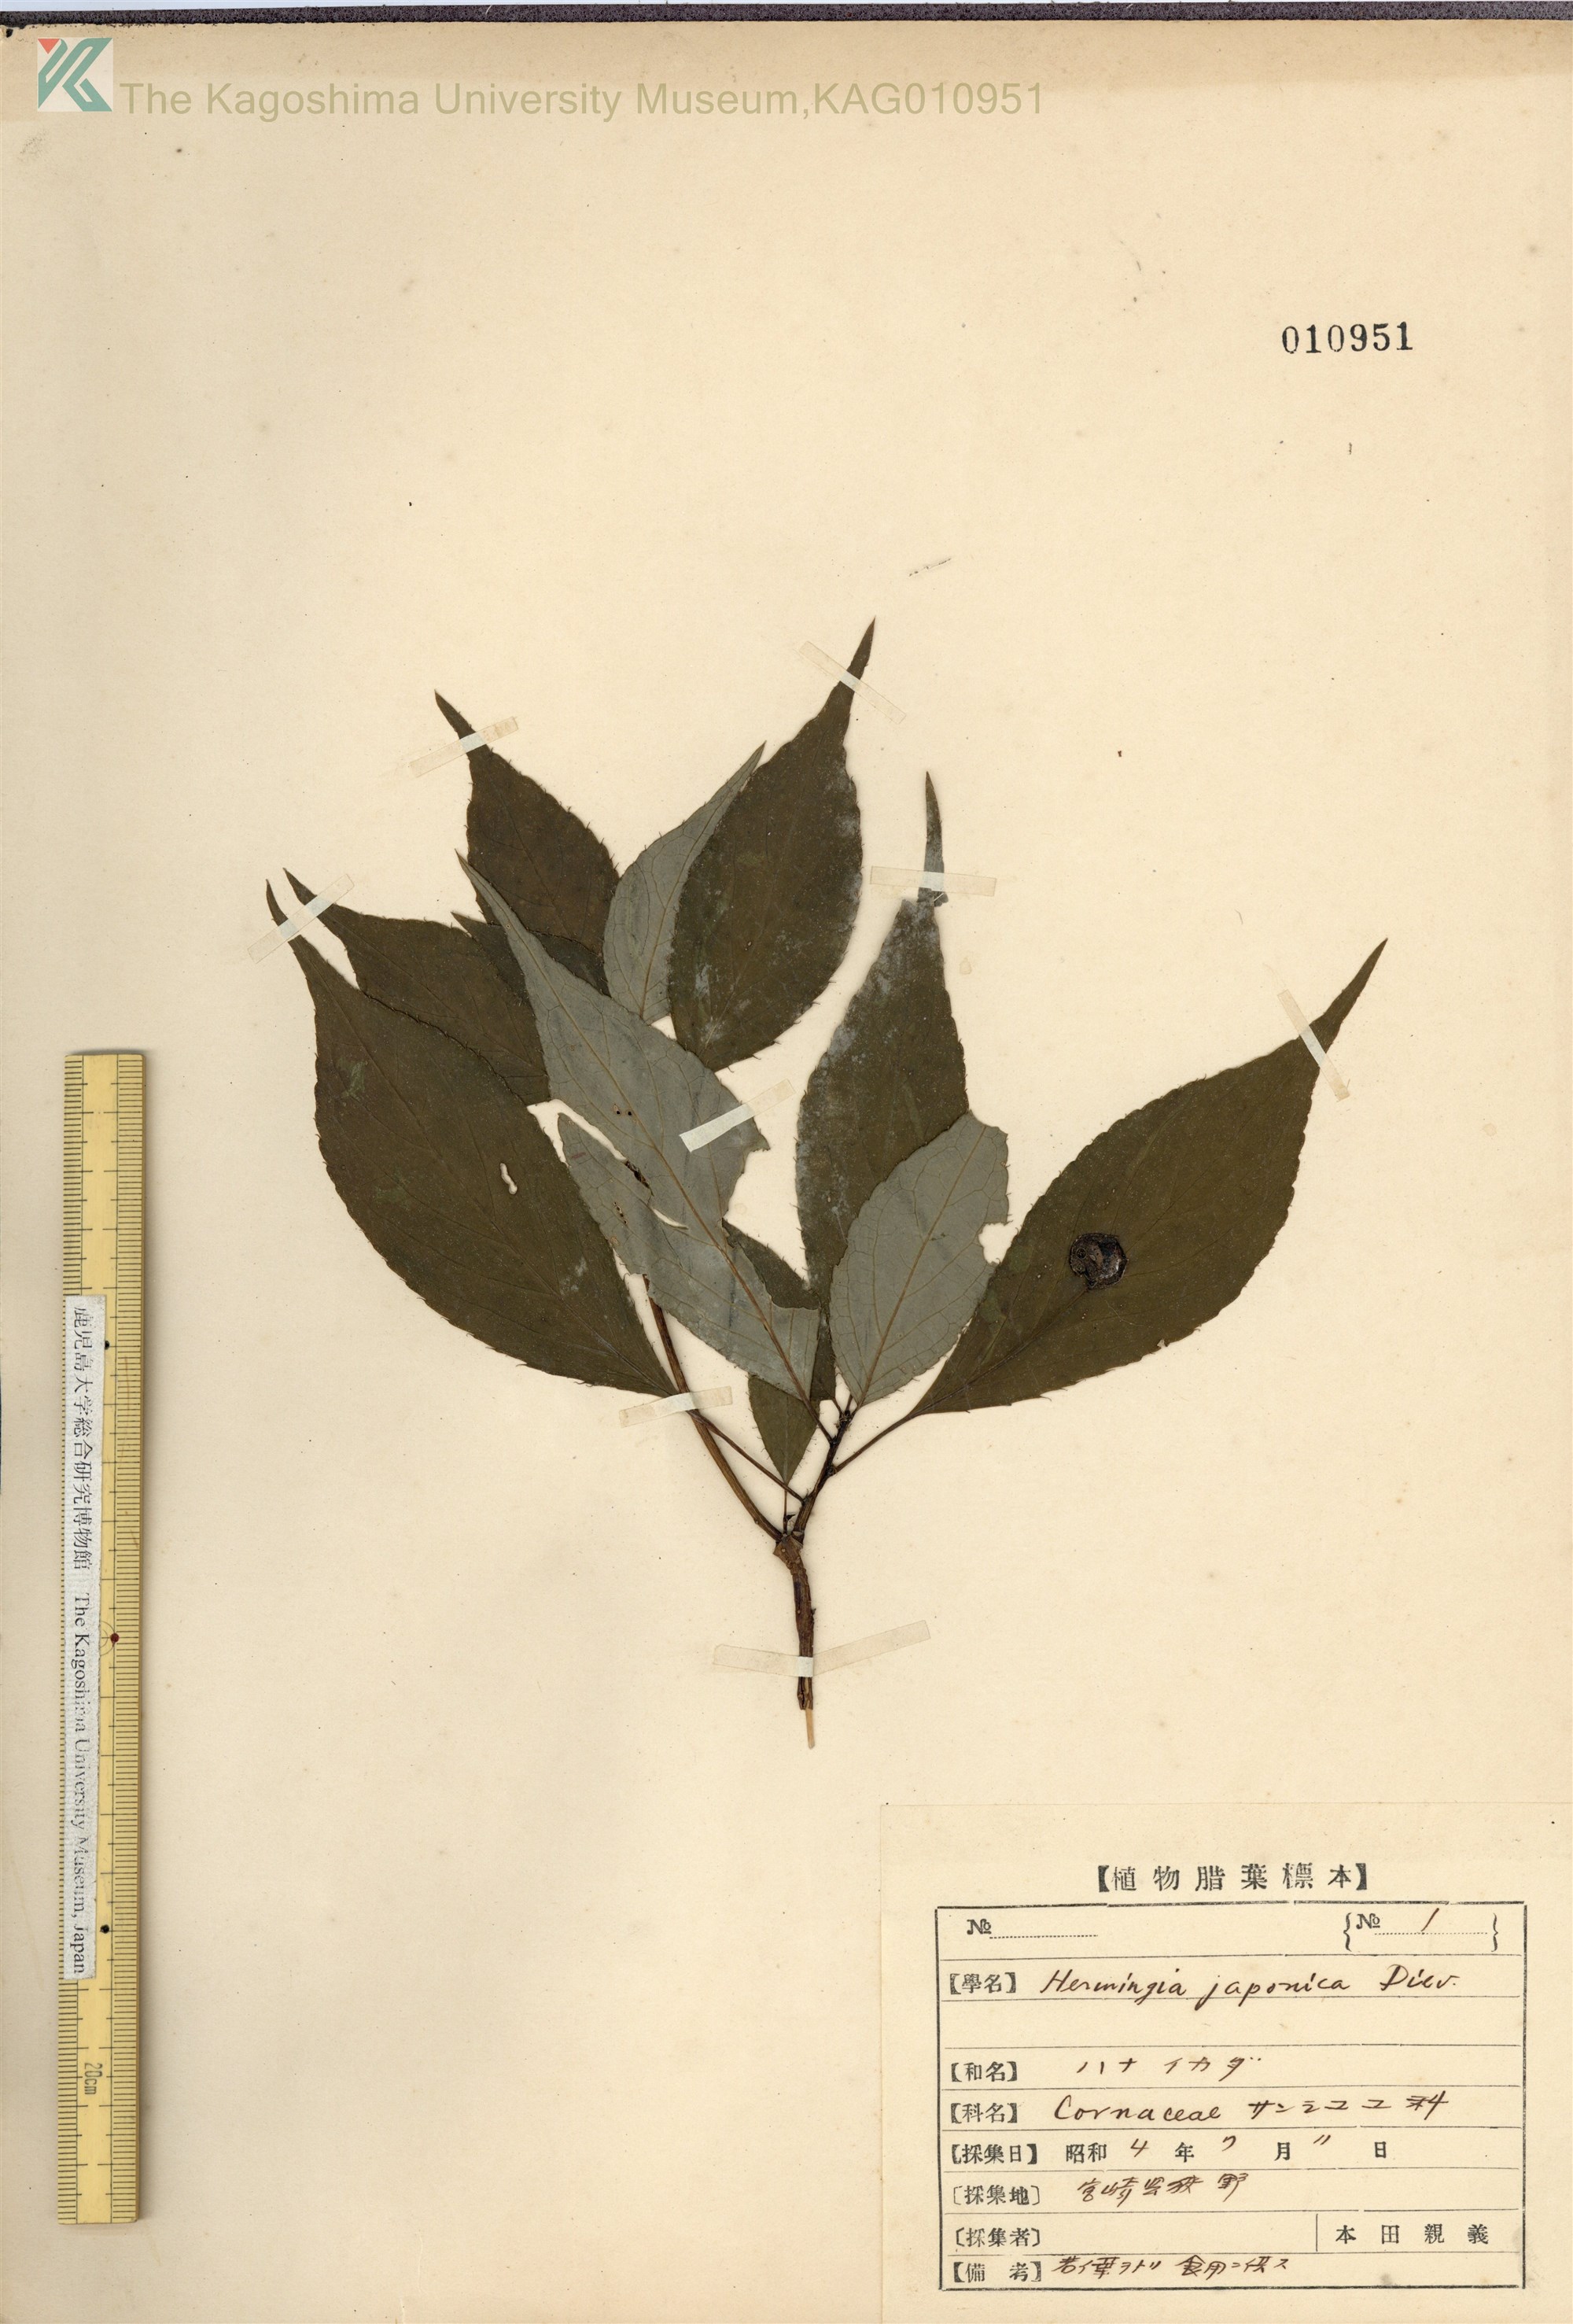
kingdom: Plantae
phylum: Tracheophyta
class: Magnoliopsida
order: Aquifoliales
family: Helwingiaceae
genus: Helwingia
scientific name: Helwingia japonica
